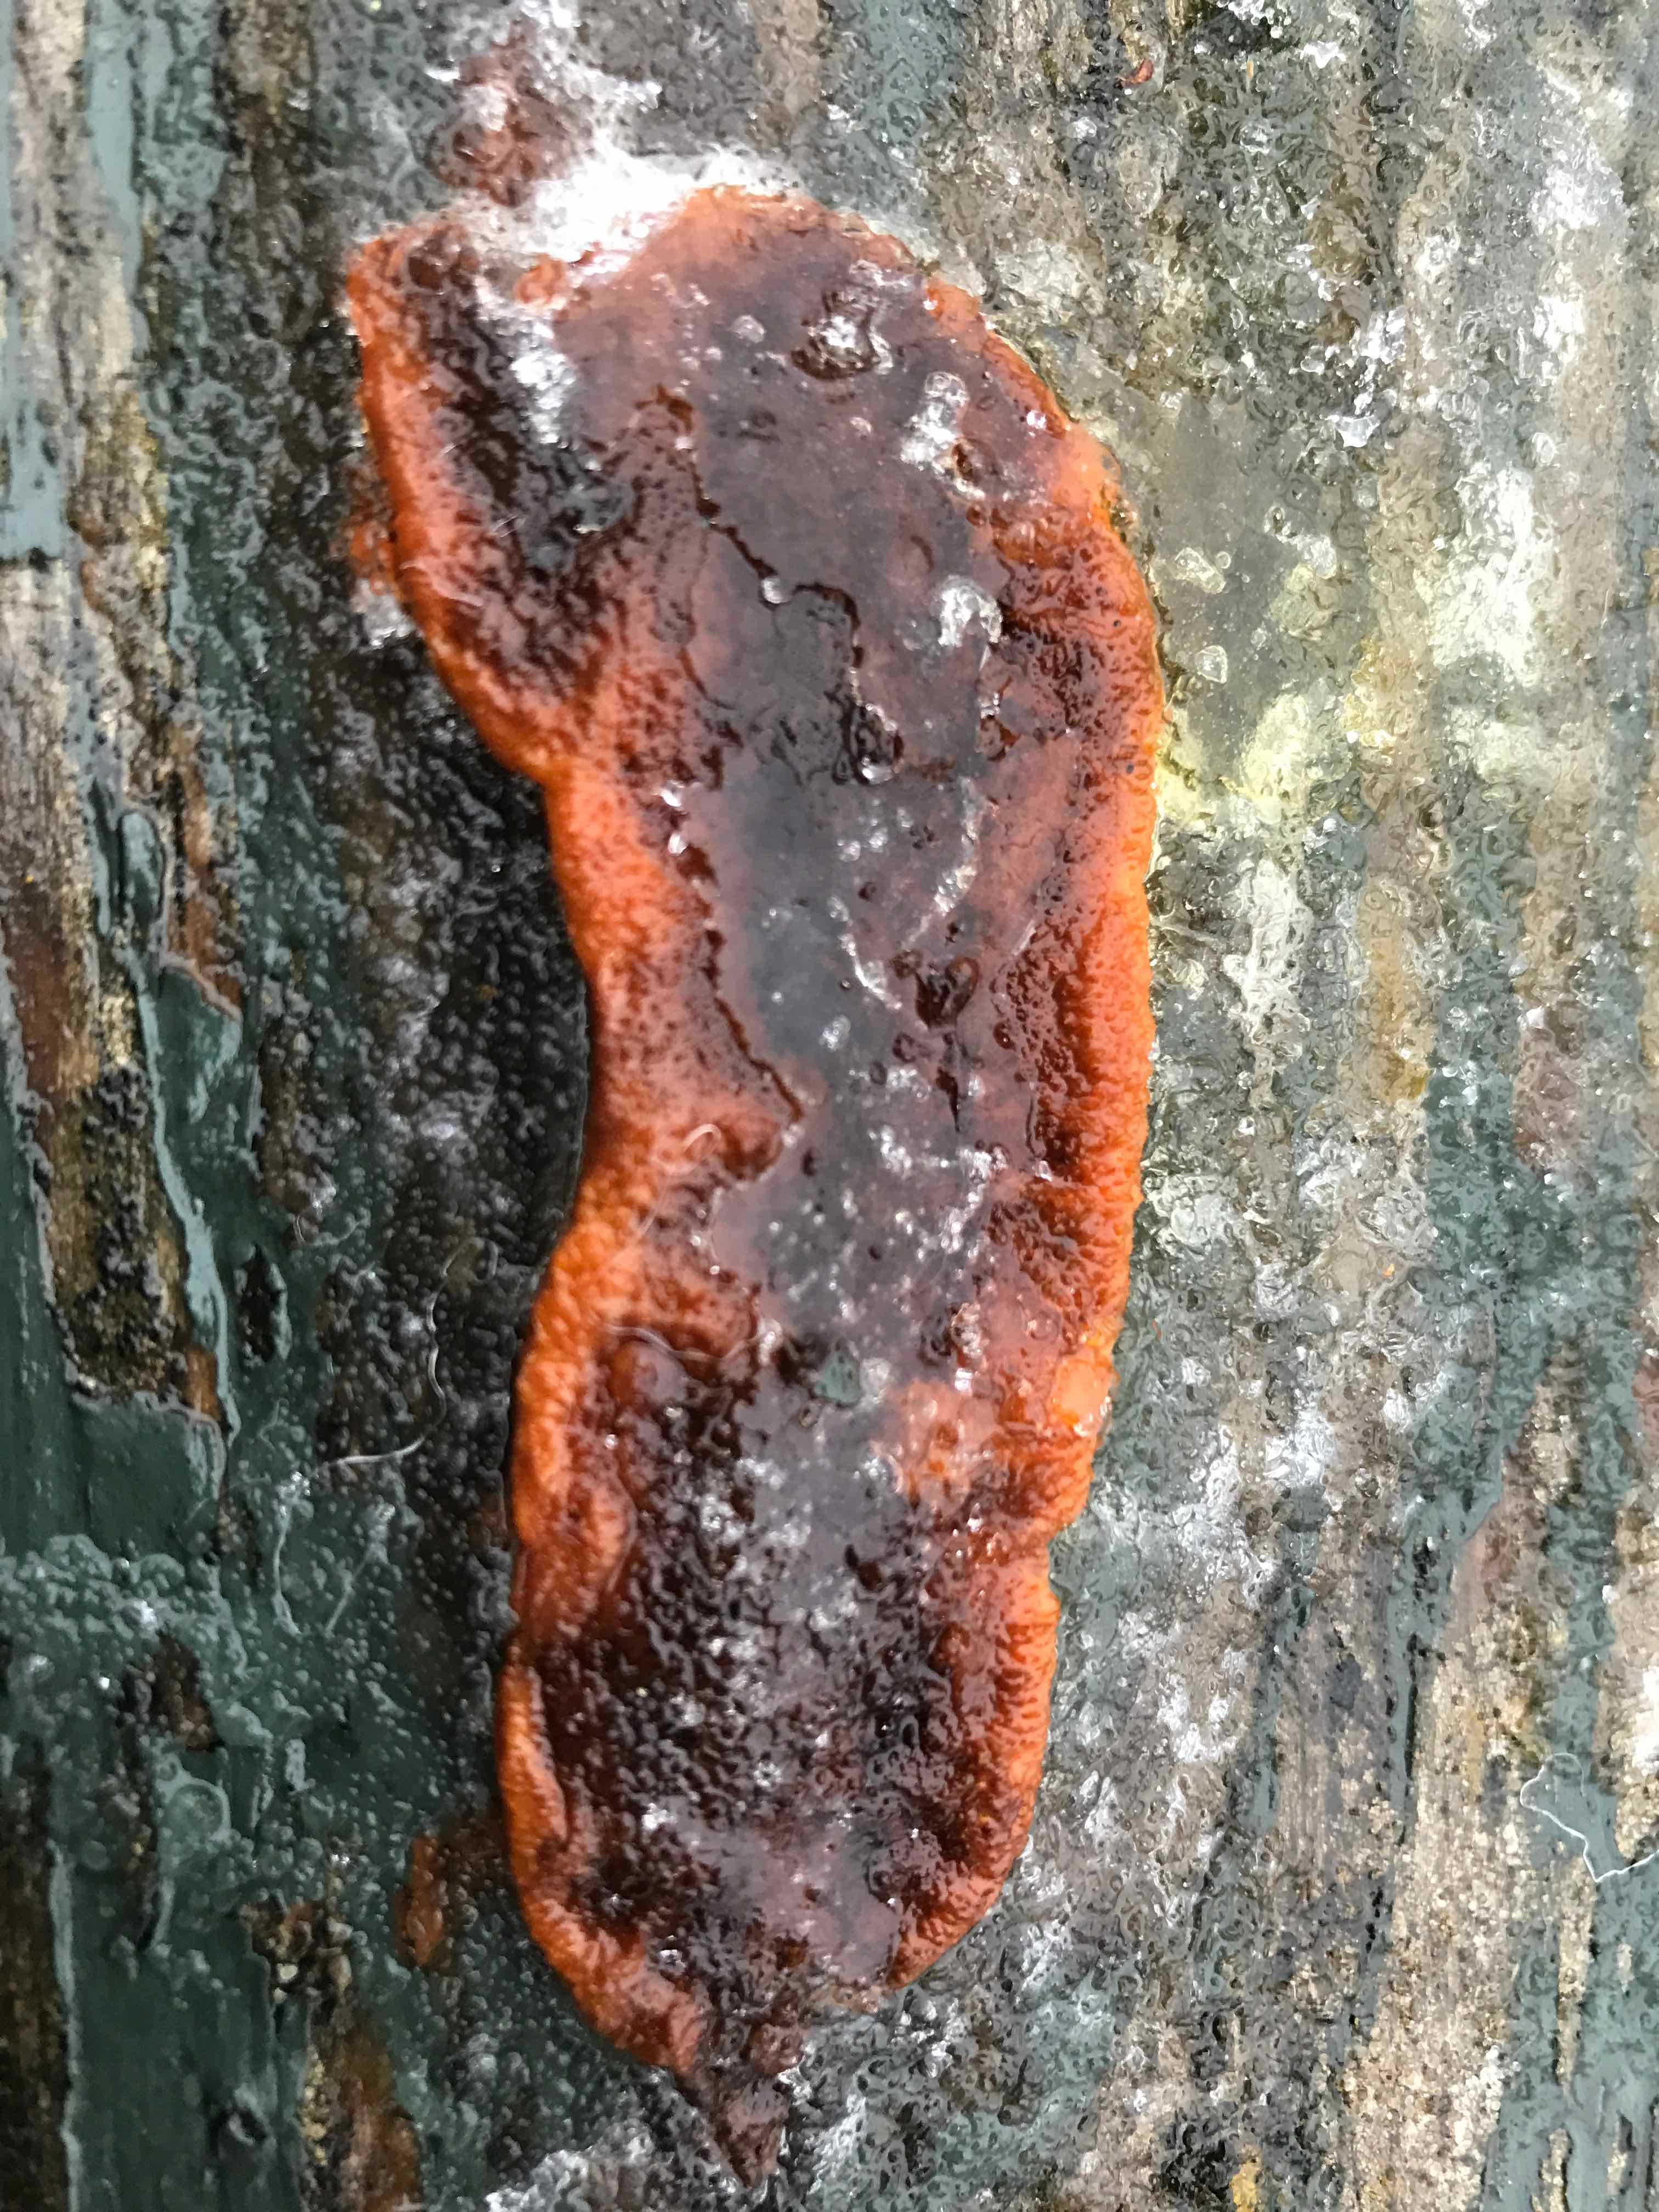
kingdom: Fungi
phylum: Basidiomycota
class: Agaricomycetes
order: Hymenochaetales
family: Hymenochaetaceae
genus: Fuscoporia
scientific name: Fuscoporia ferrea
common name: skorpe-ildporesvamp
